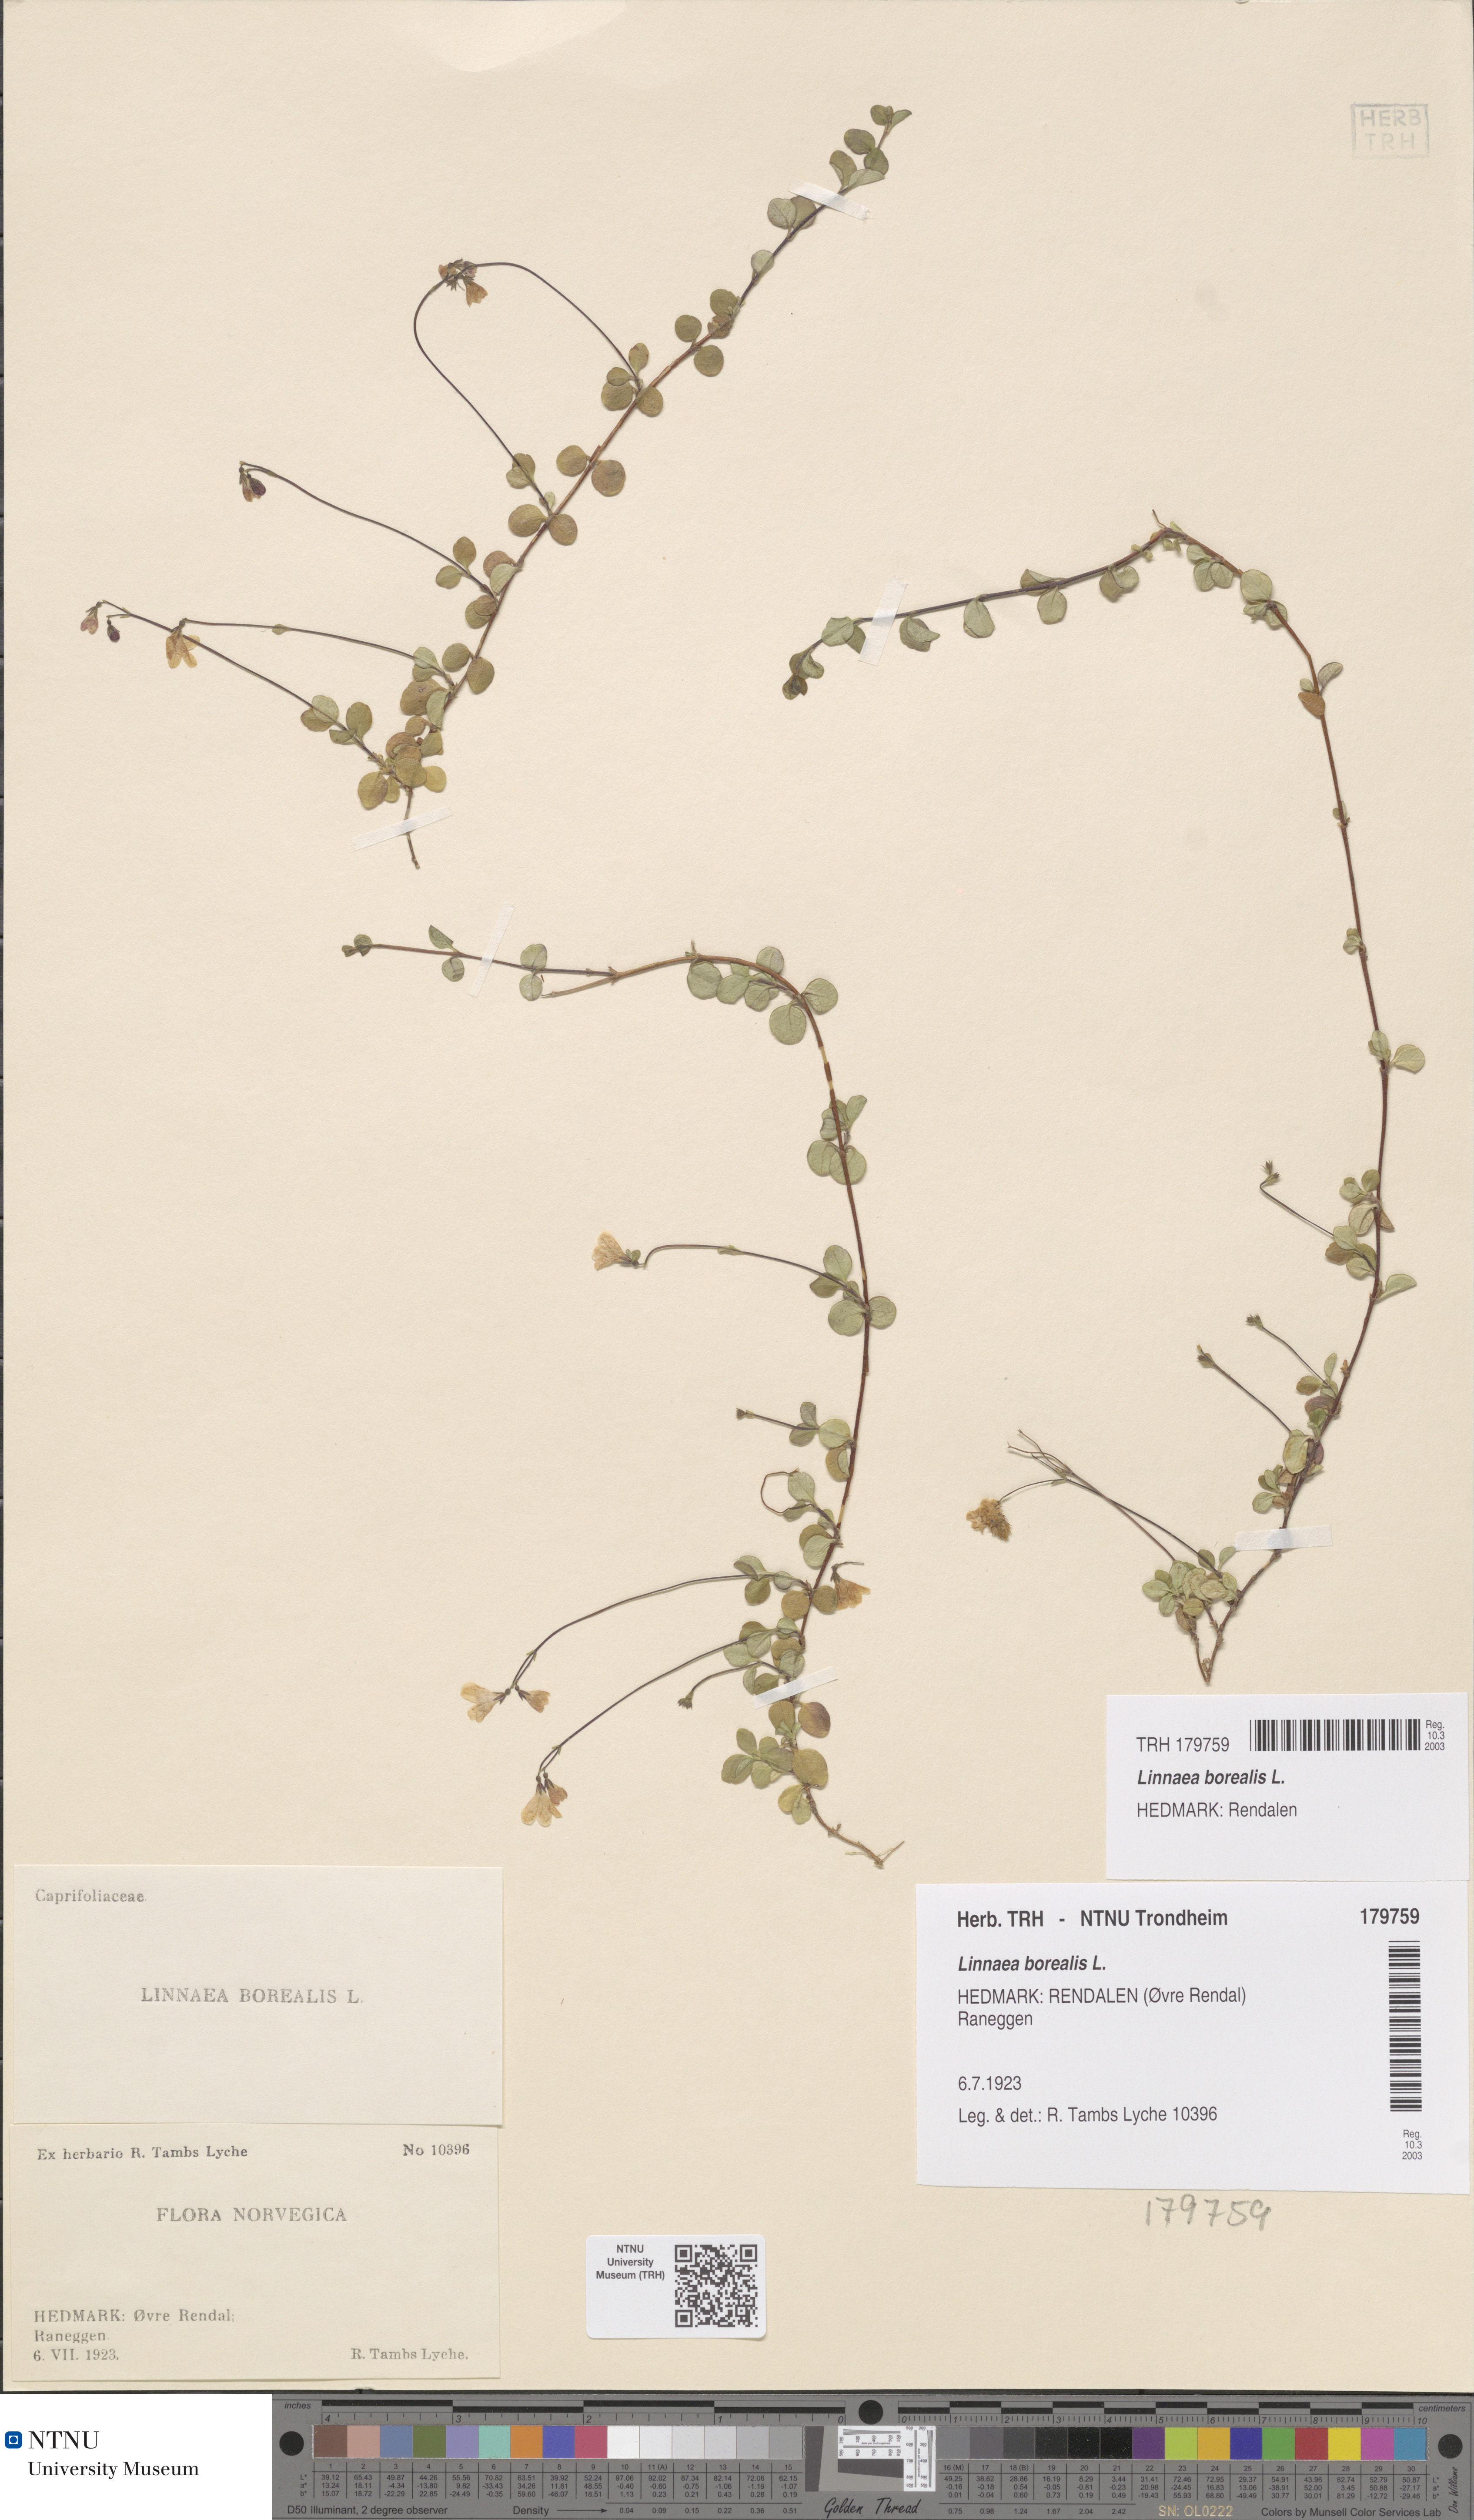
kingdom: Plantae
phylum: Tracheophyta
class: Magnoliopsida
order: Dipsacales
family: Caprifoliaceae
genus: Linnaea
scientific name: Linnaea borealis
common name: Twinflower
